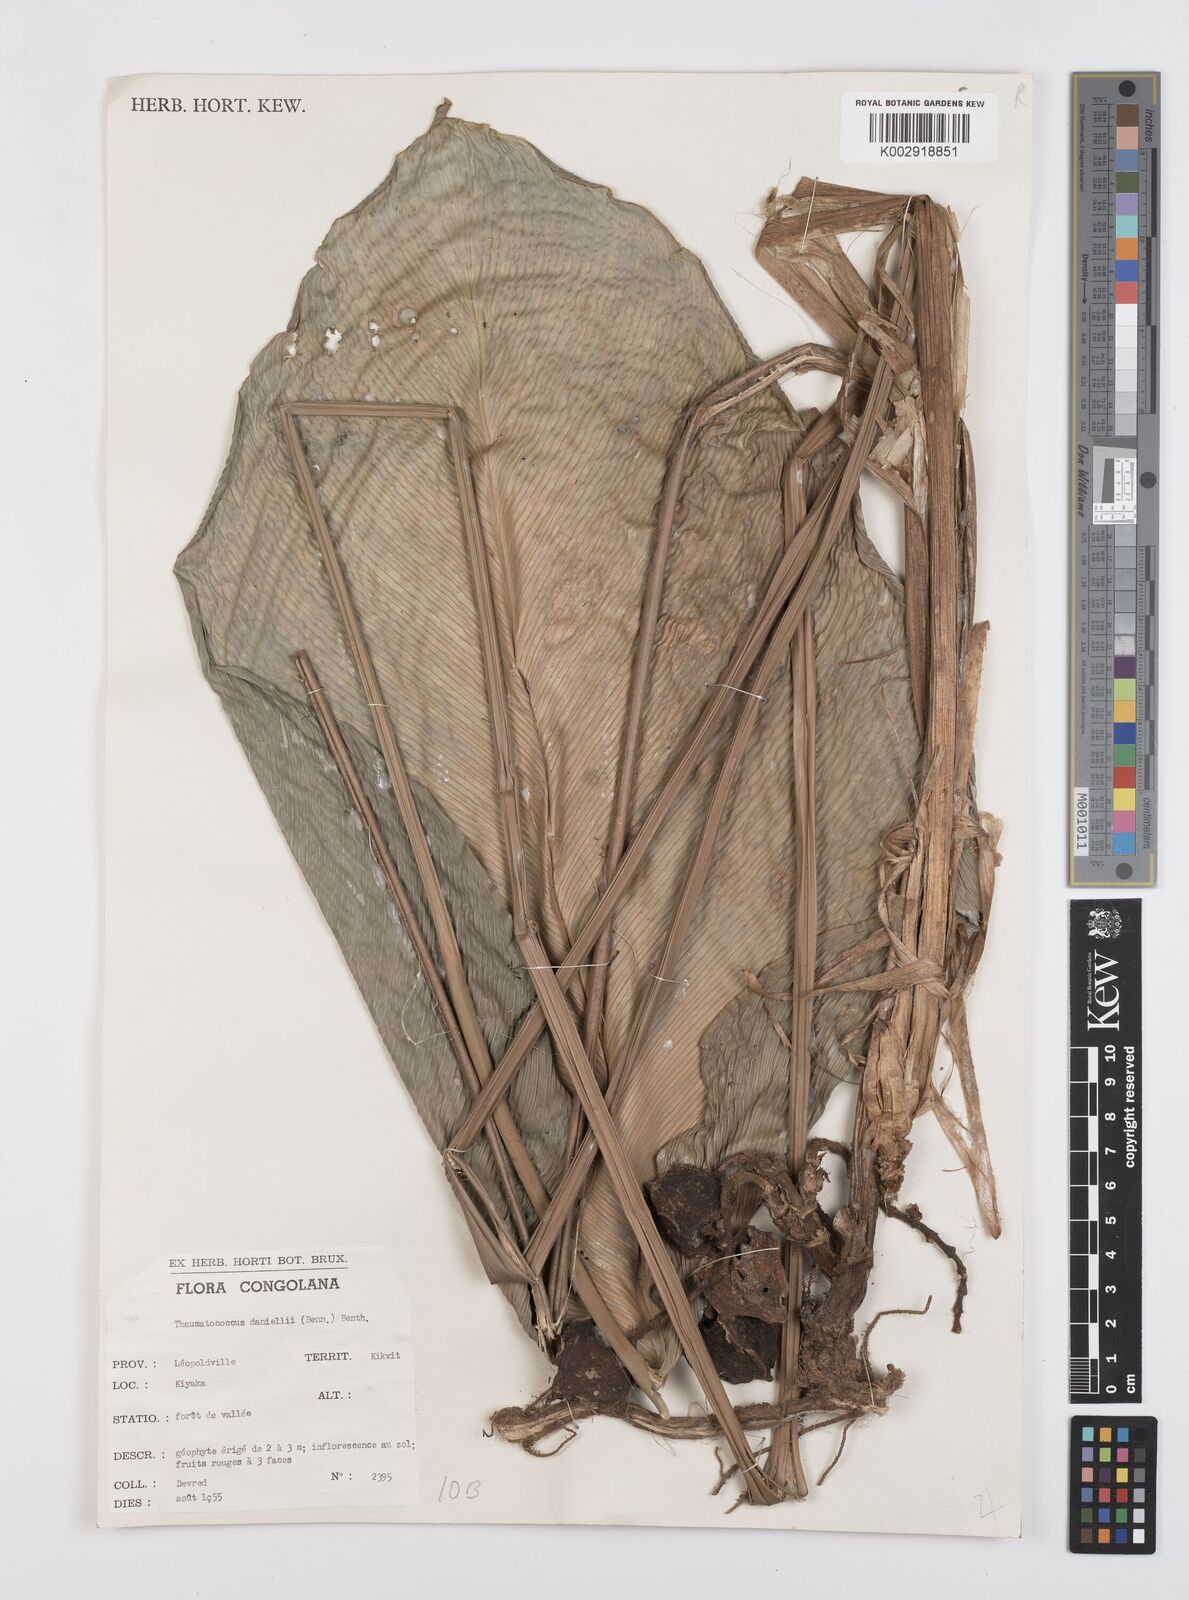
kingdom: Plantae
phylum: Tracheophyta
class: Liliopsida
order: Zingiberales
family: Marantaceae
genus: Thaumatococcus
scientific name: Thaumatococcus daniellii
